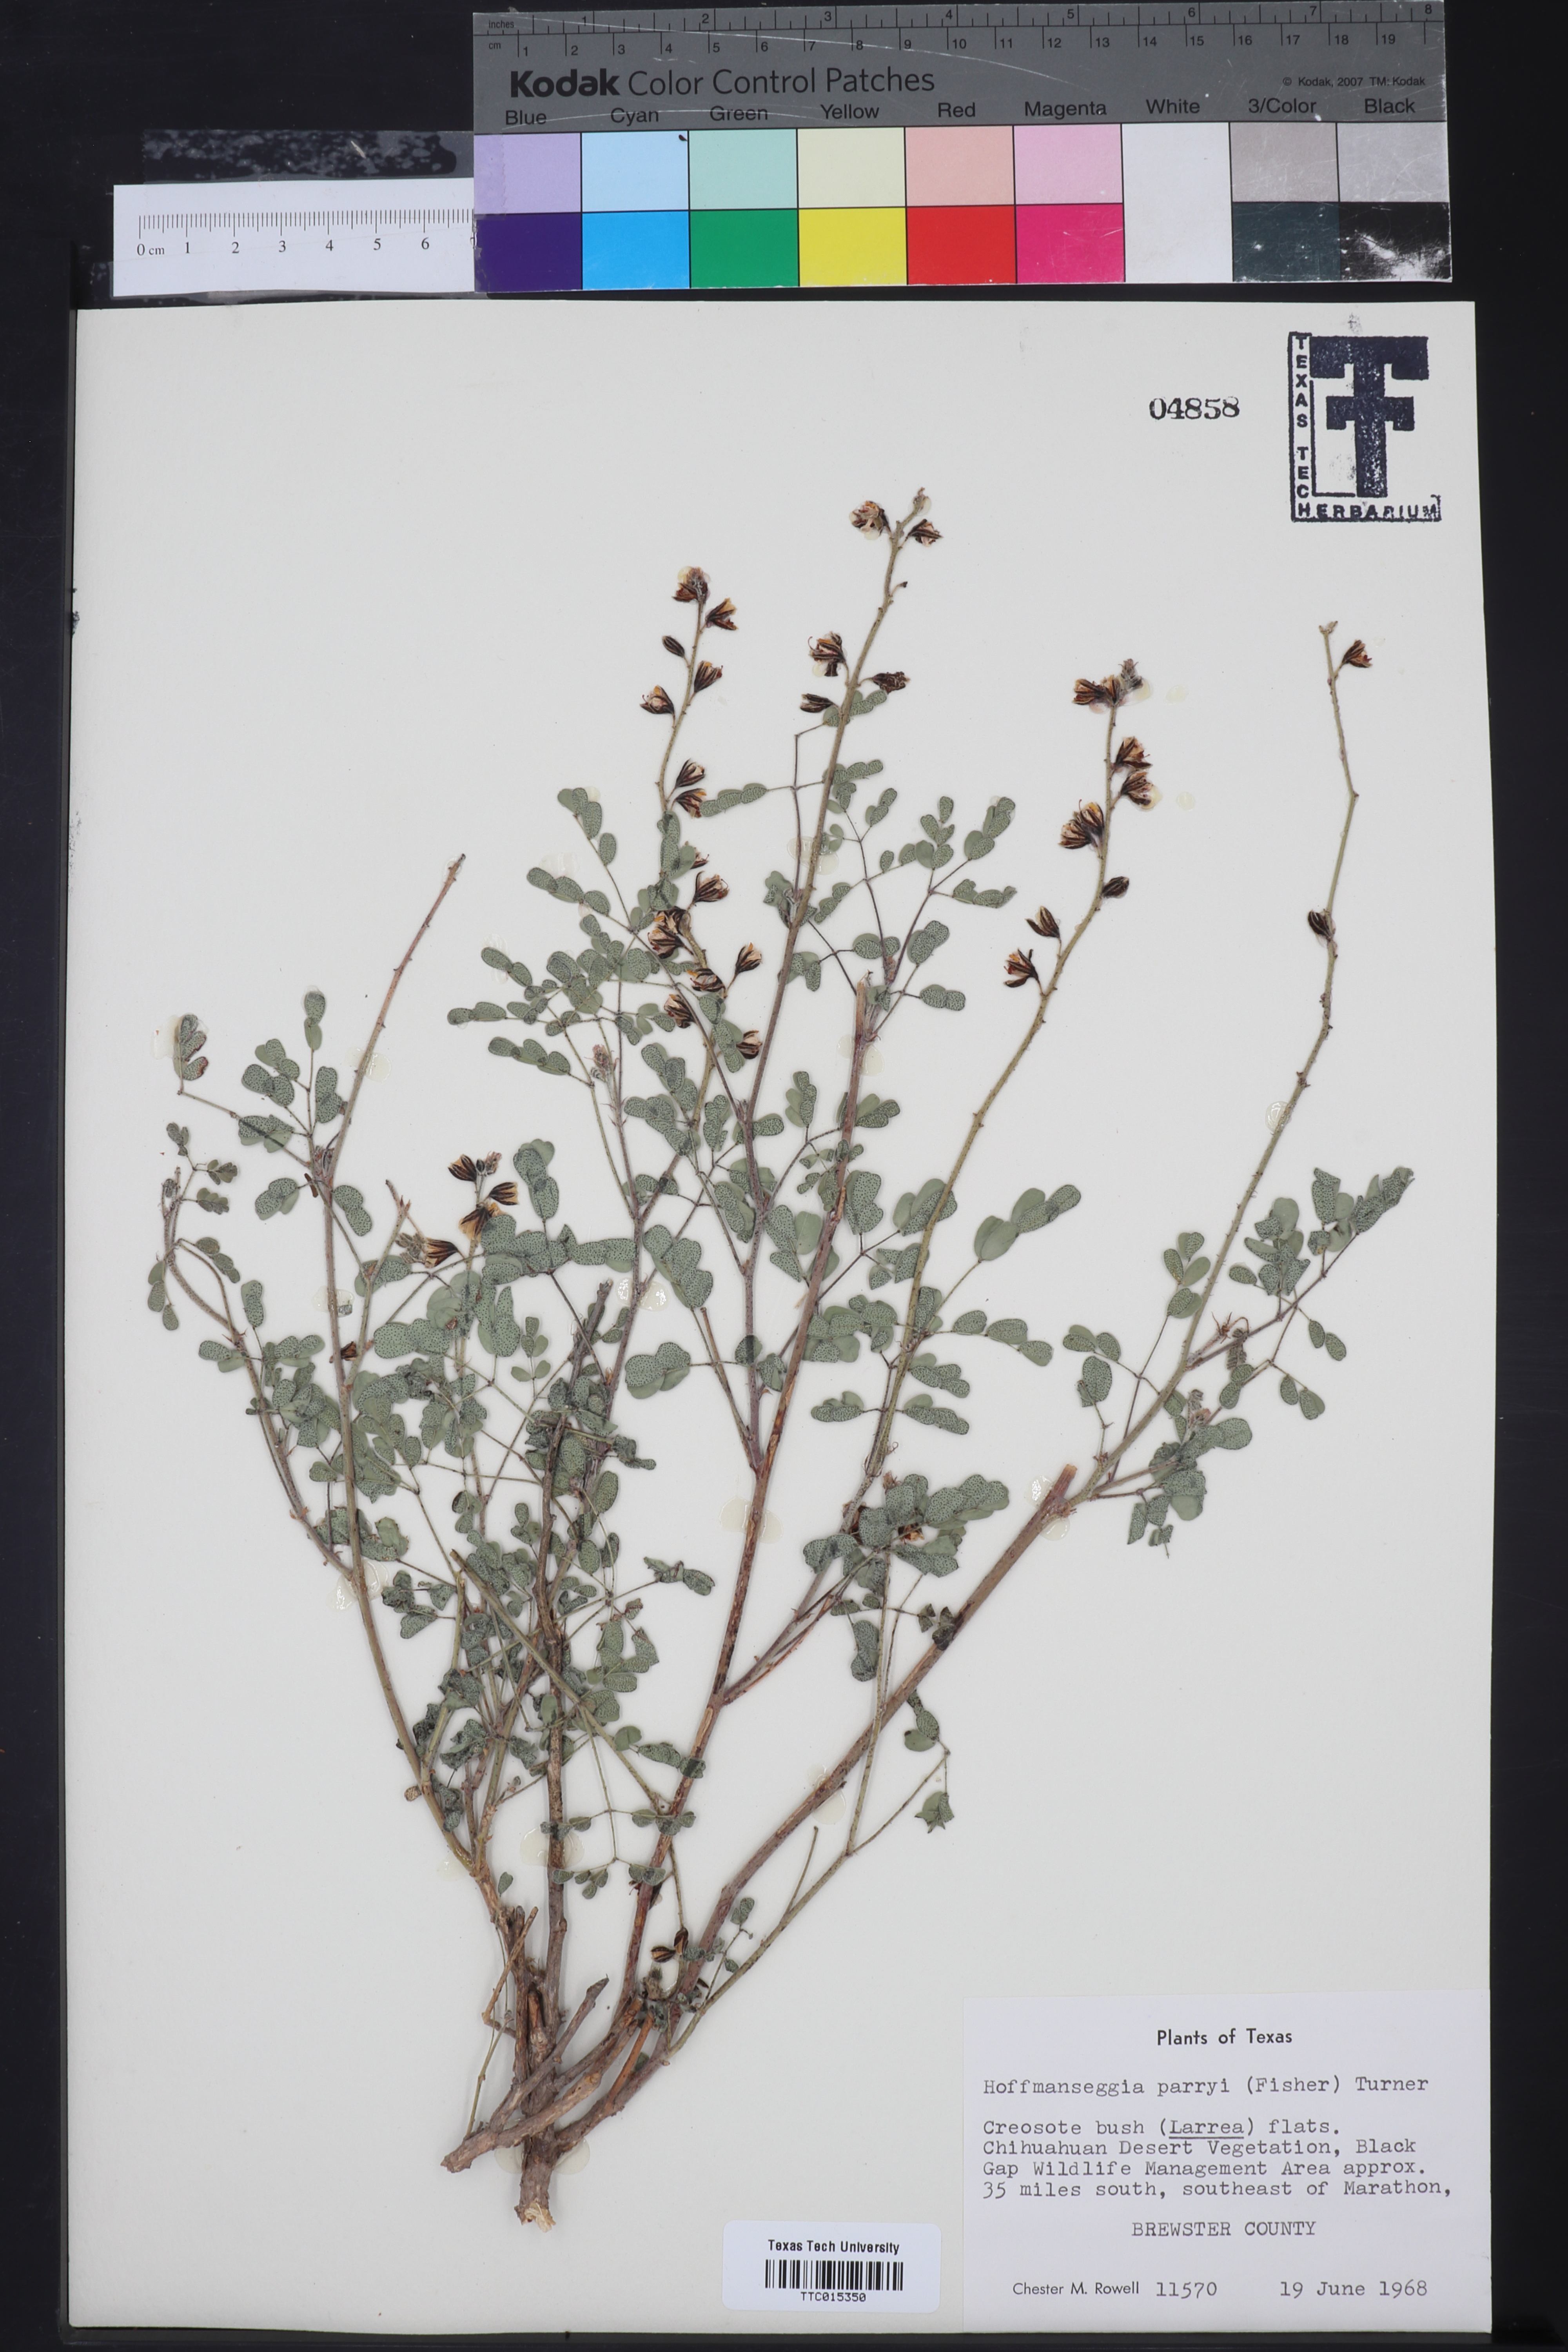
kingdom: Plantae
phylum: Tracheophyta
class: Magnoliopsida
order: Fabales
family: Fabaceae
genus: Pomaria
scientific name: Pomaria melanosticta
